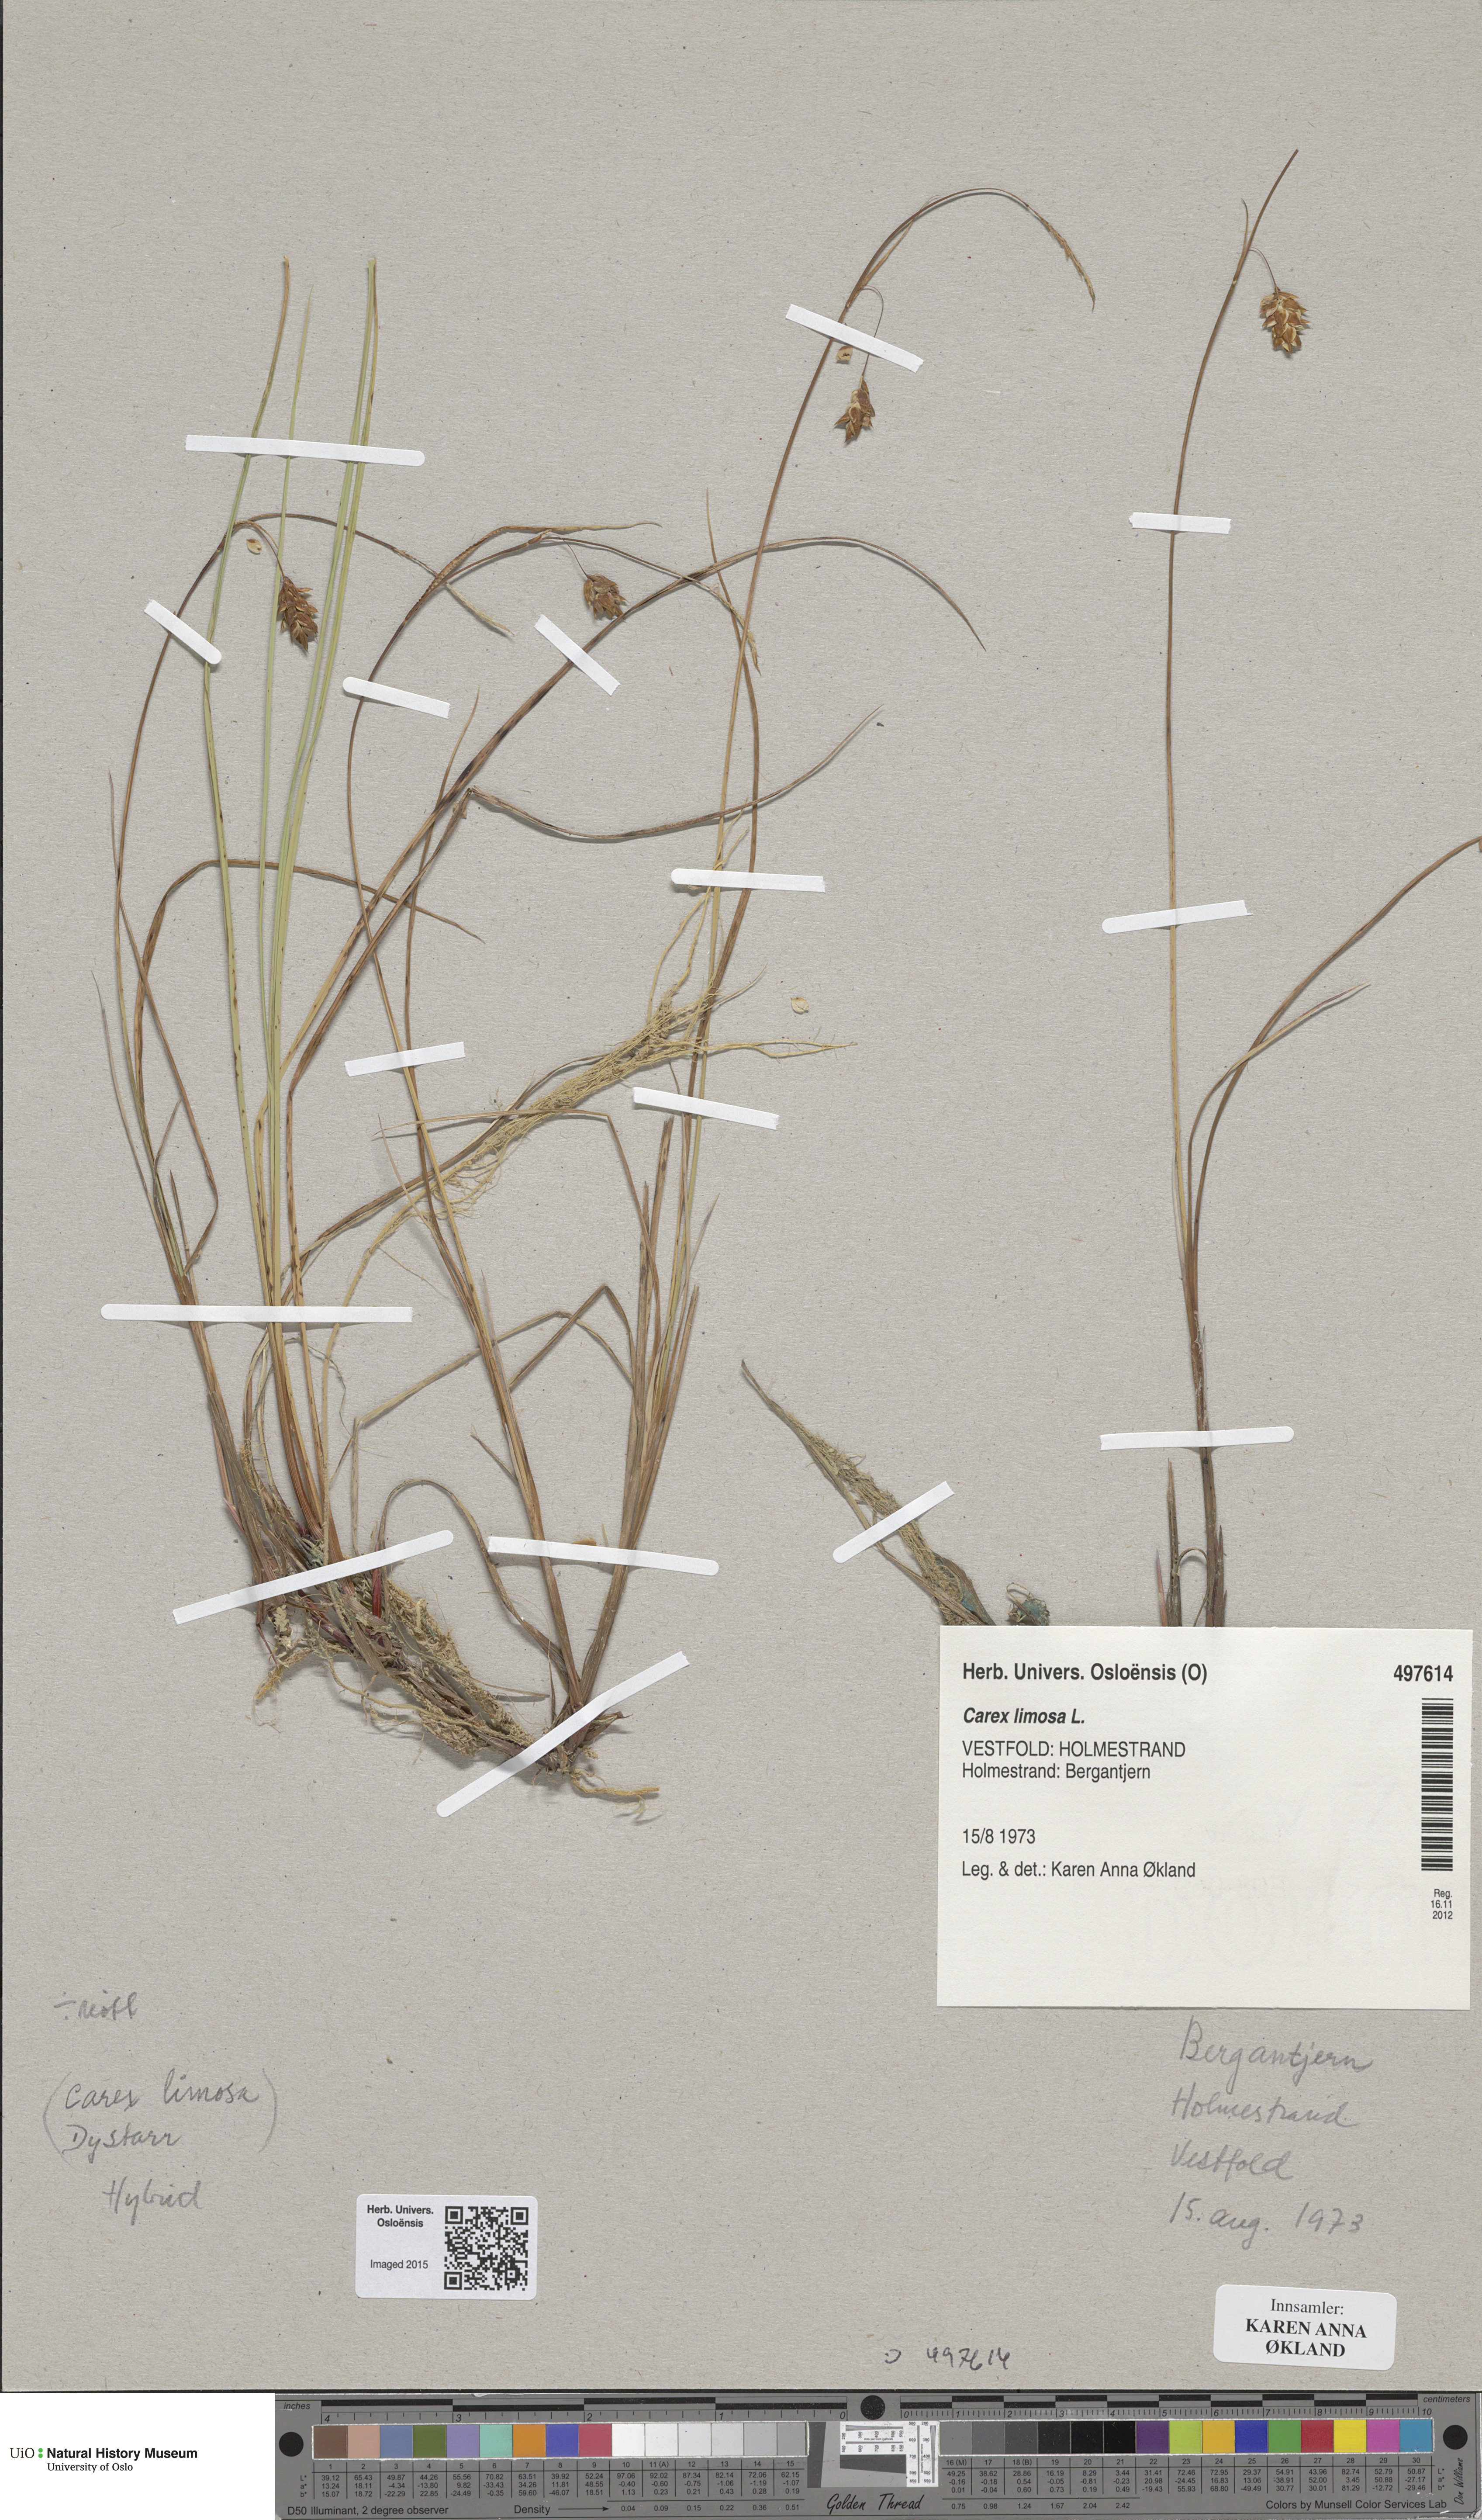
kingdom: Plantae
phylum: Tracheophyta
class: Liliopsida
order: Poales
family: Cyperaceae
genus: Carex
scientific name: Carex limosa
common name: Bog sedge
